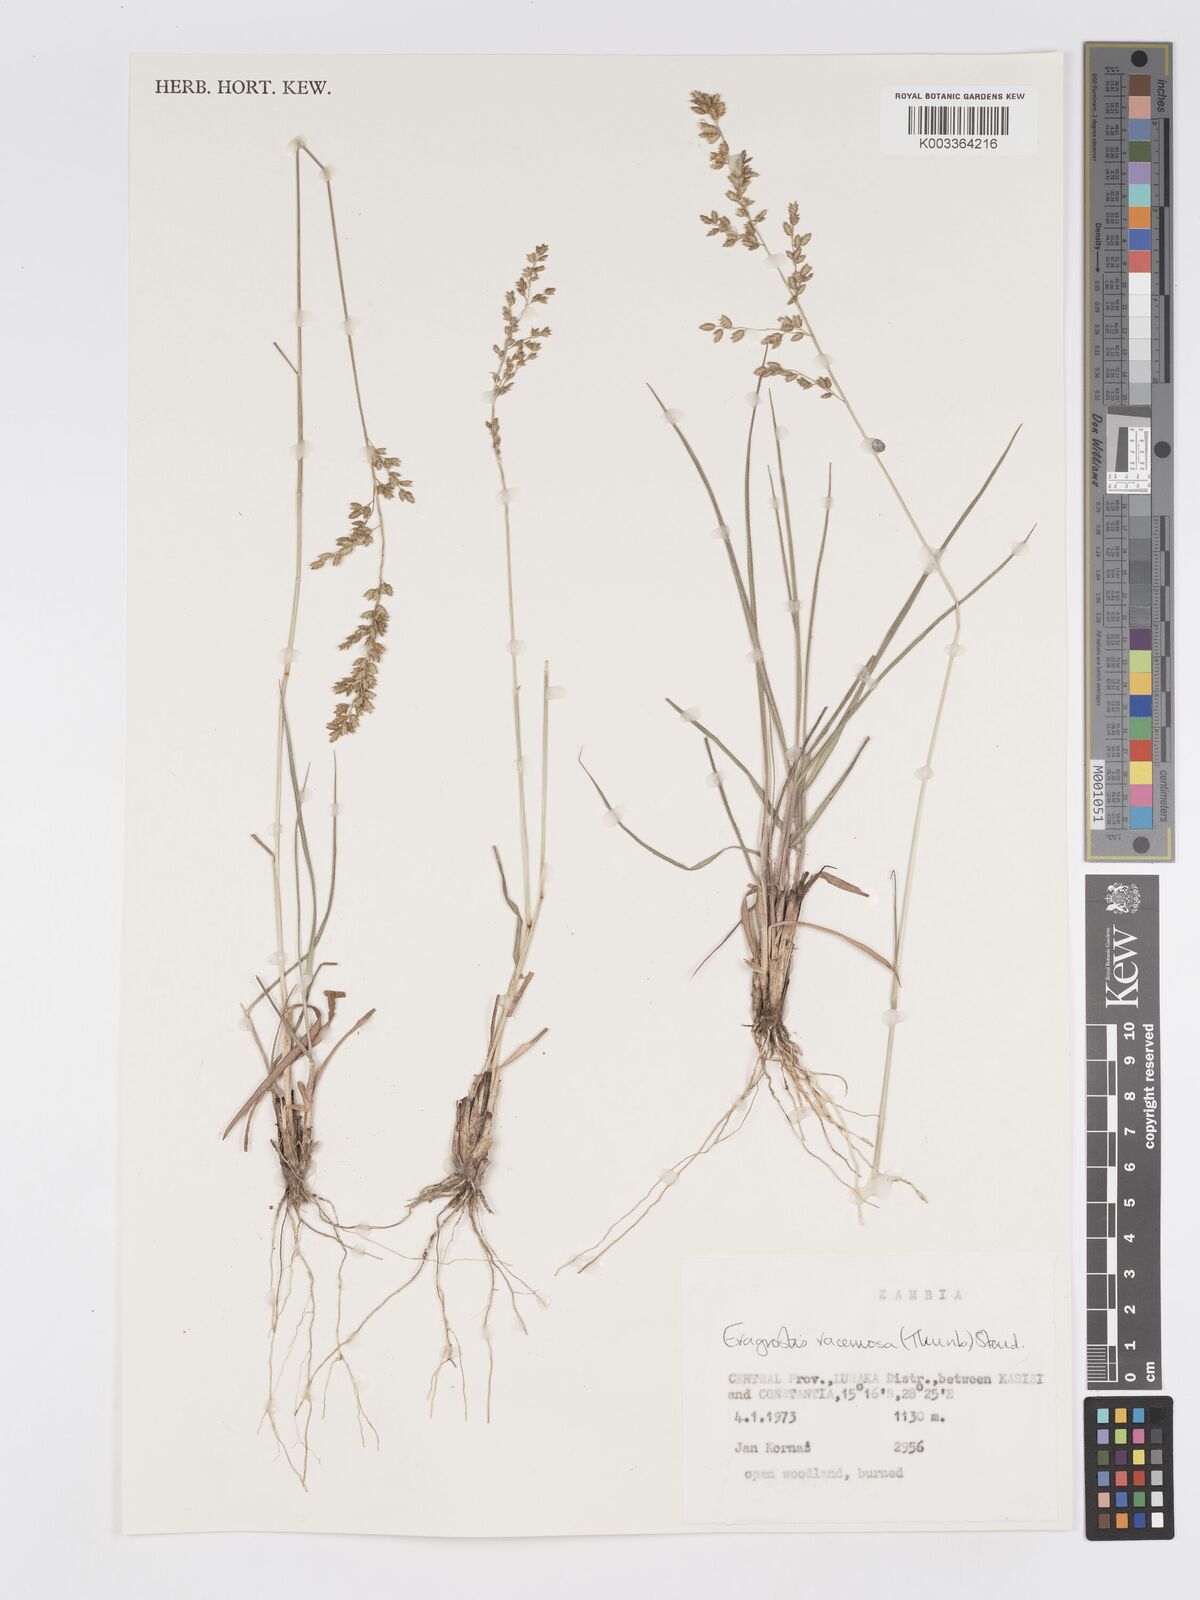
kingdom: Plantae
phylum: Tracheophyta
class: Liliopsida
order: Poales
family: Poaceae
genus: Eragrostis
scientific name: Eragrostis racemosa
